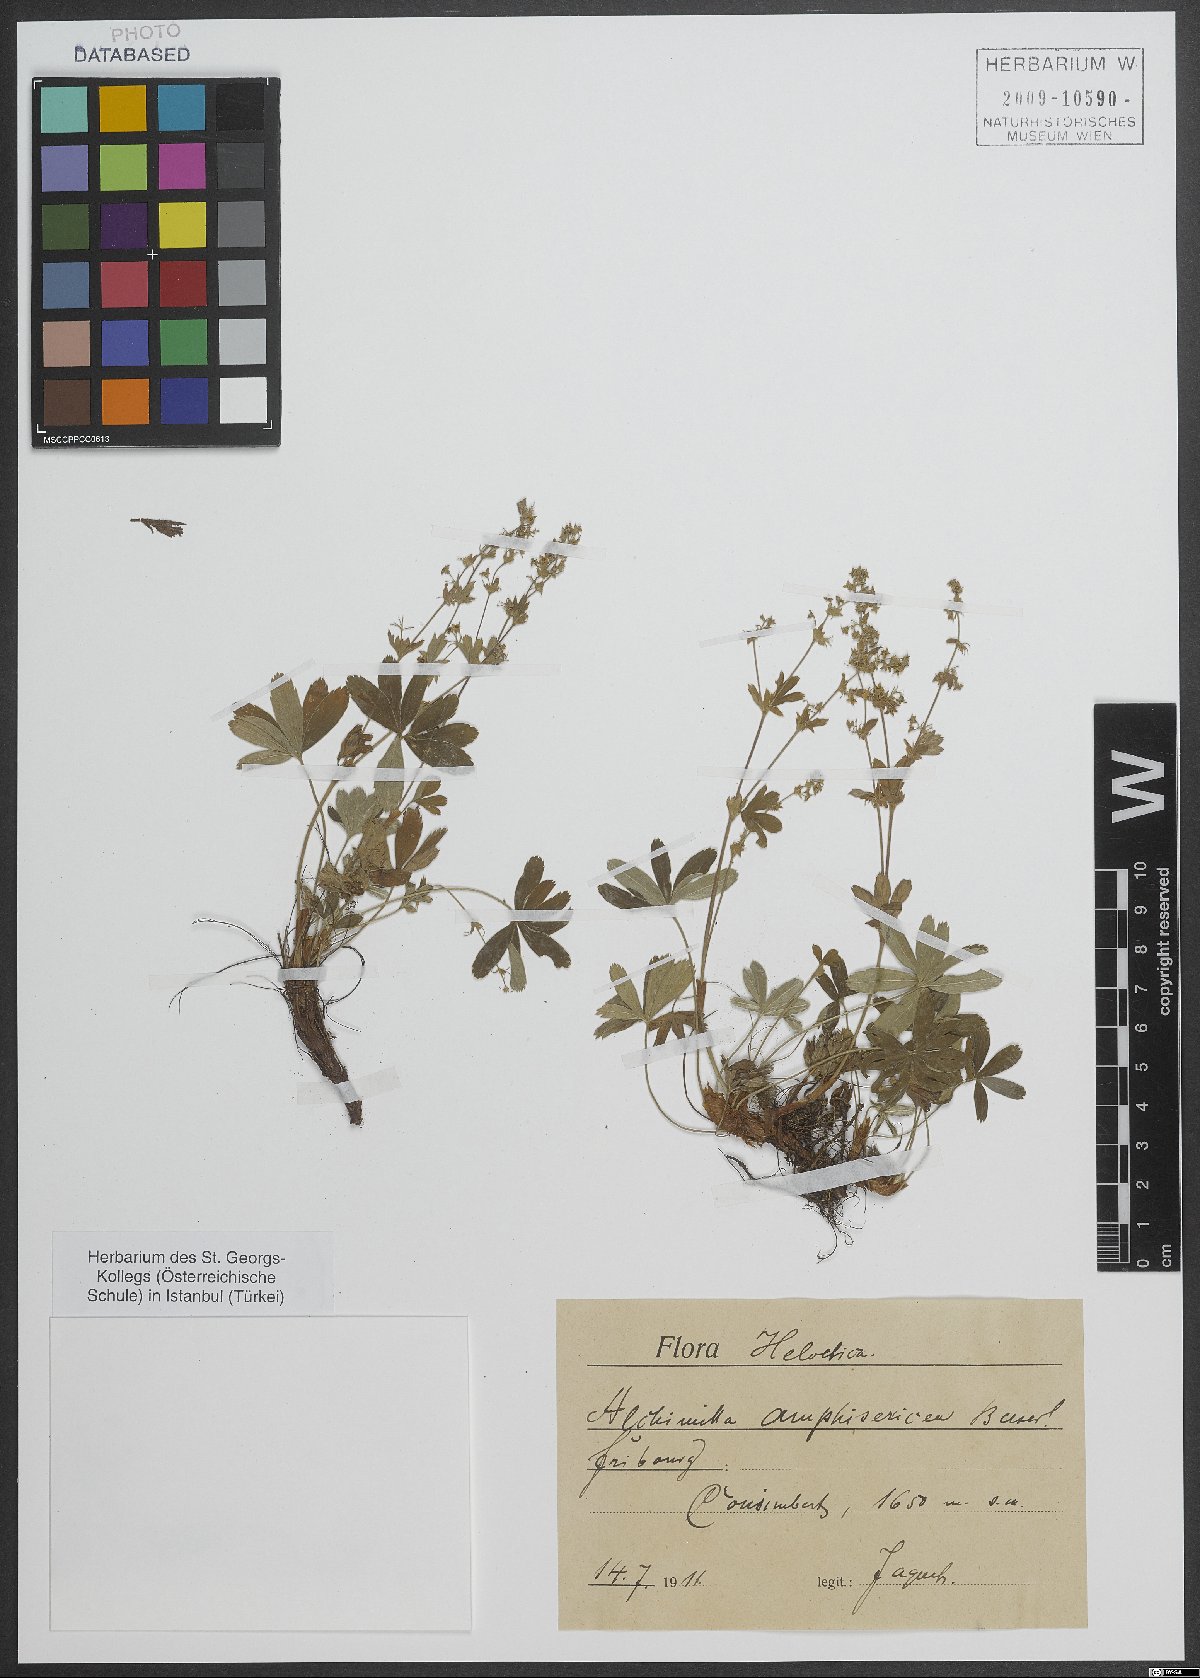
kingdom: Plantae
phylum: Tracheophyta
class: Magnoliopsida
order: Rosales
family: Rosaceae
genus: Alchemilla
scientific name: Alchemilla amphisericea
